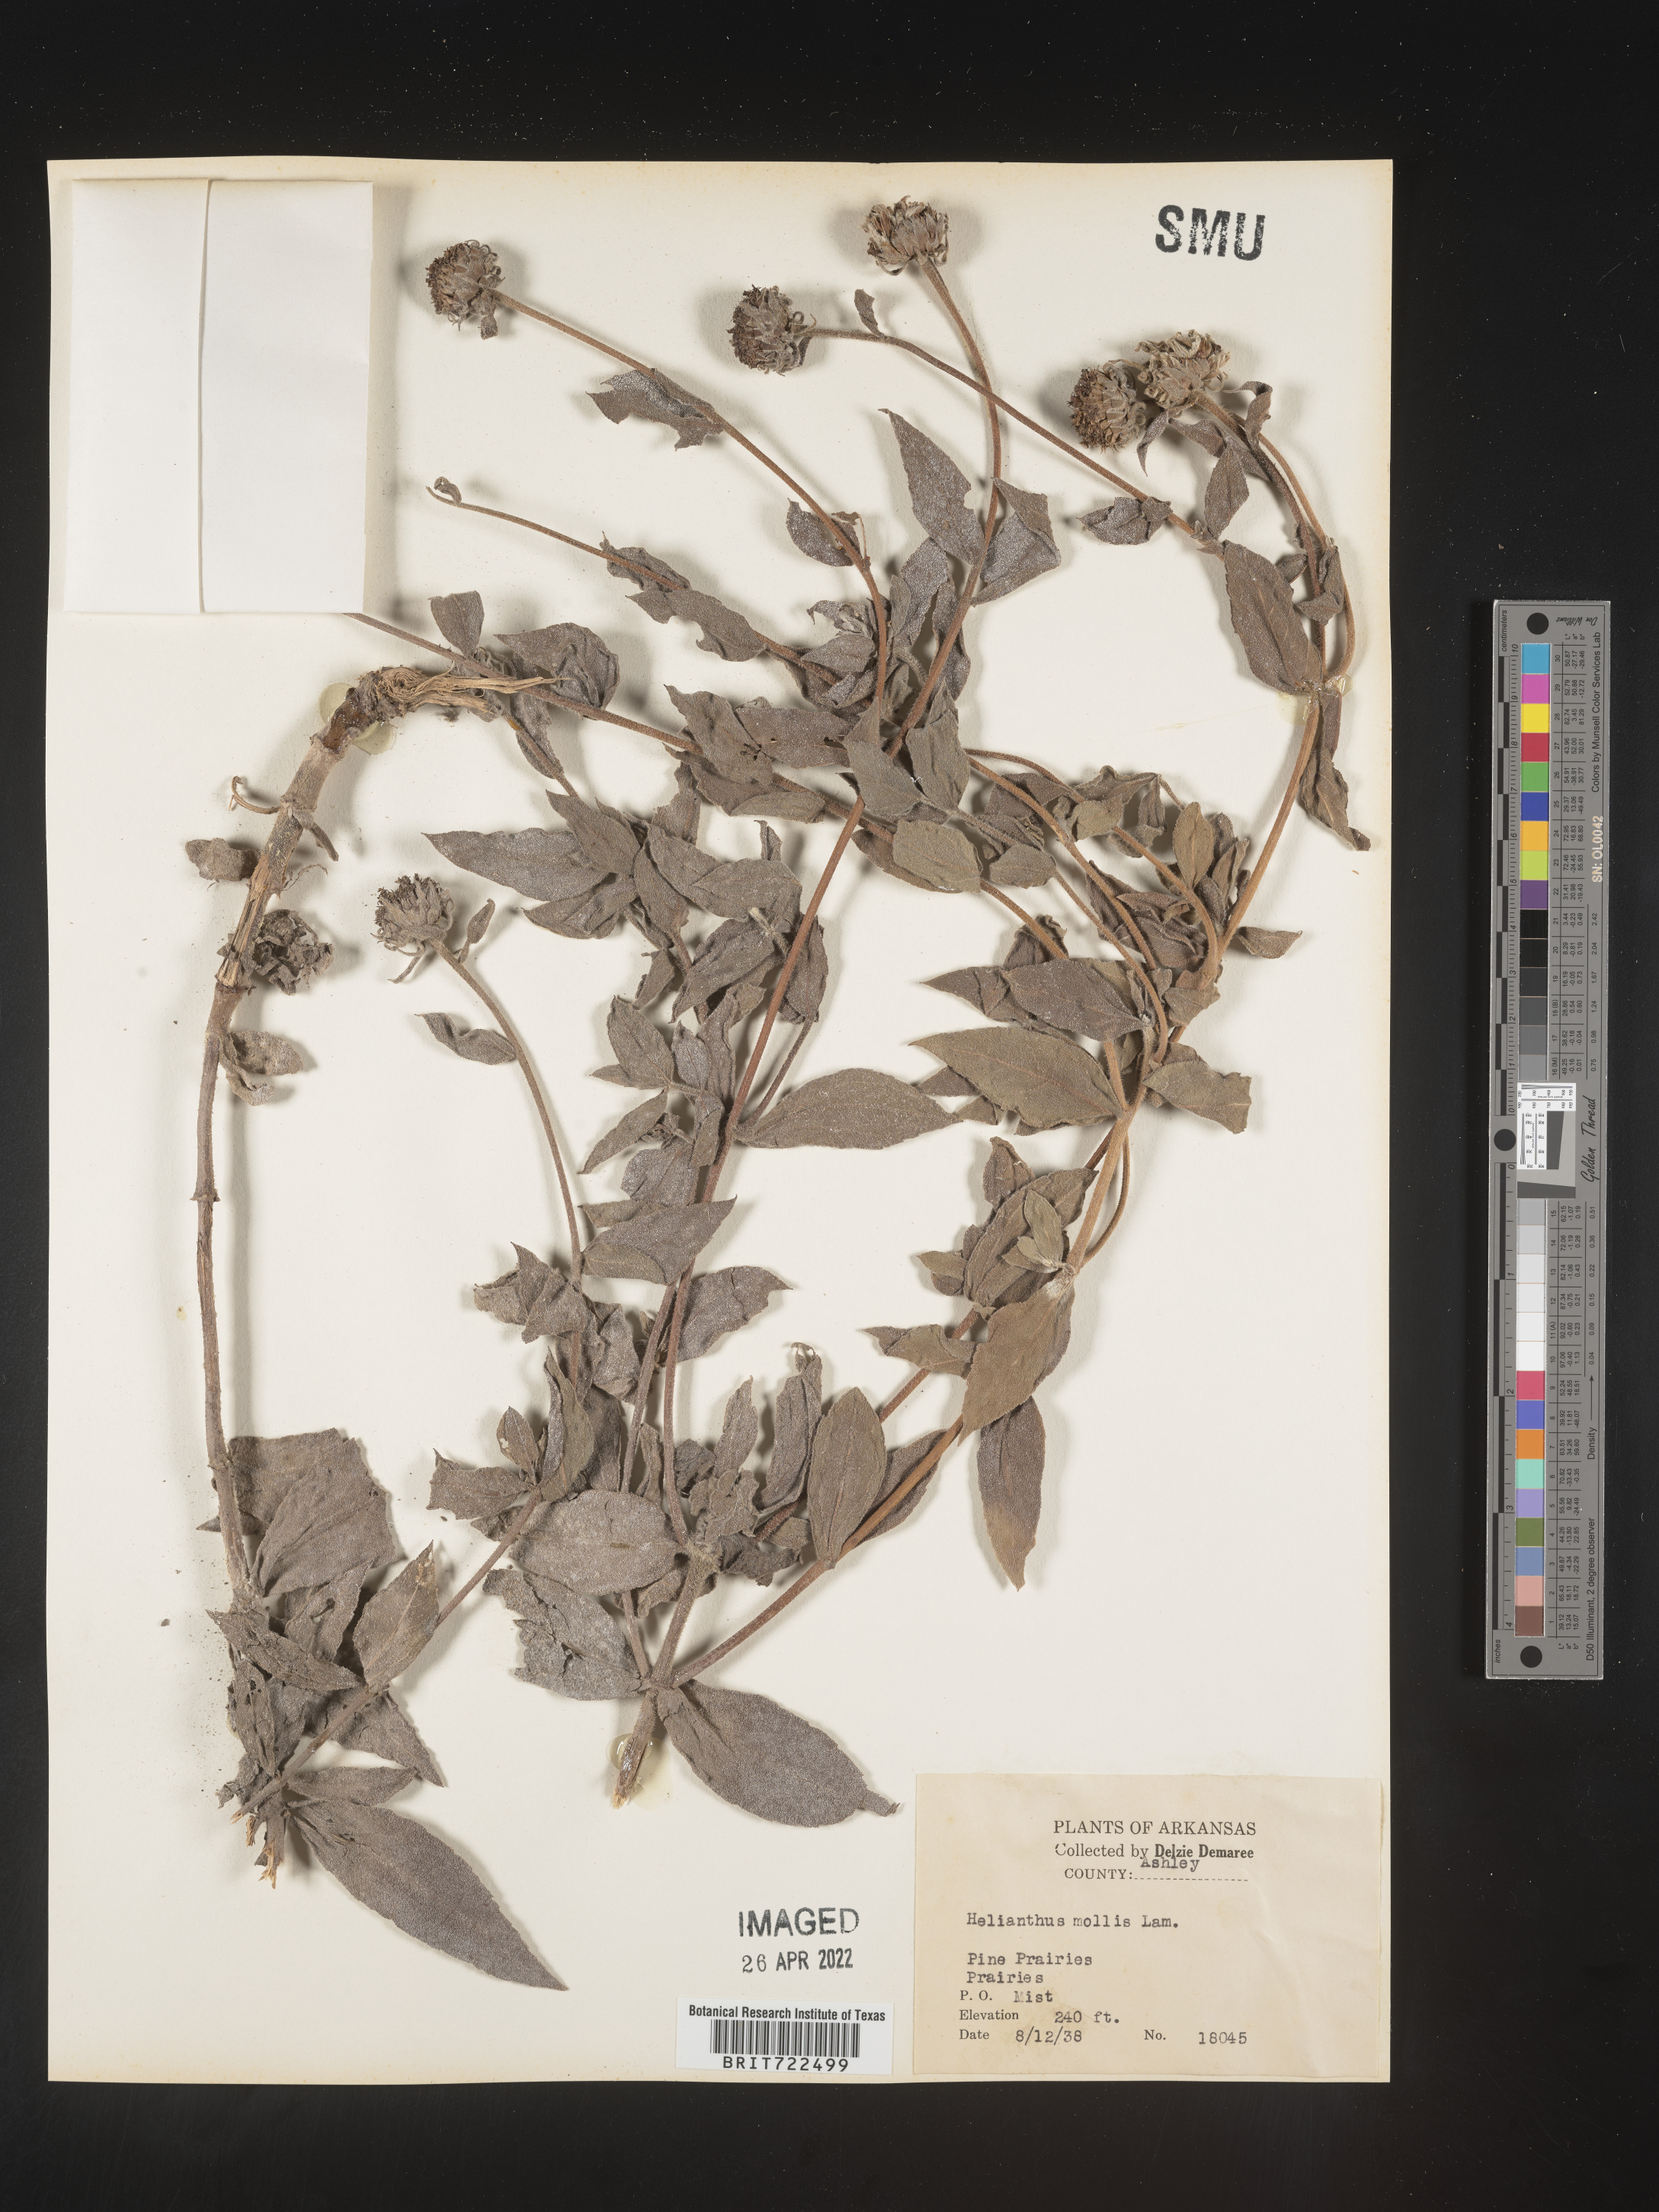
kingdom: Plantae
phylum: Tracheophyta
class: Magnoliopsida
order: Asterales
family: Asteraceae
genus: Helianthus
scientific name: Helianthus mollis
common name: Ashy sunflower
